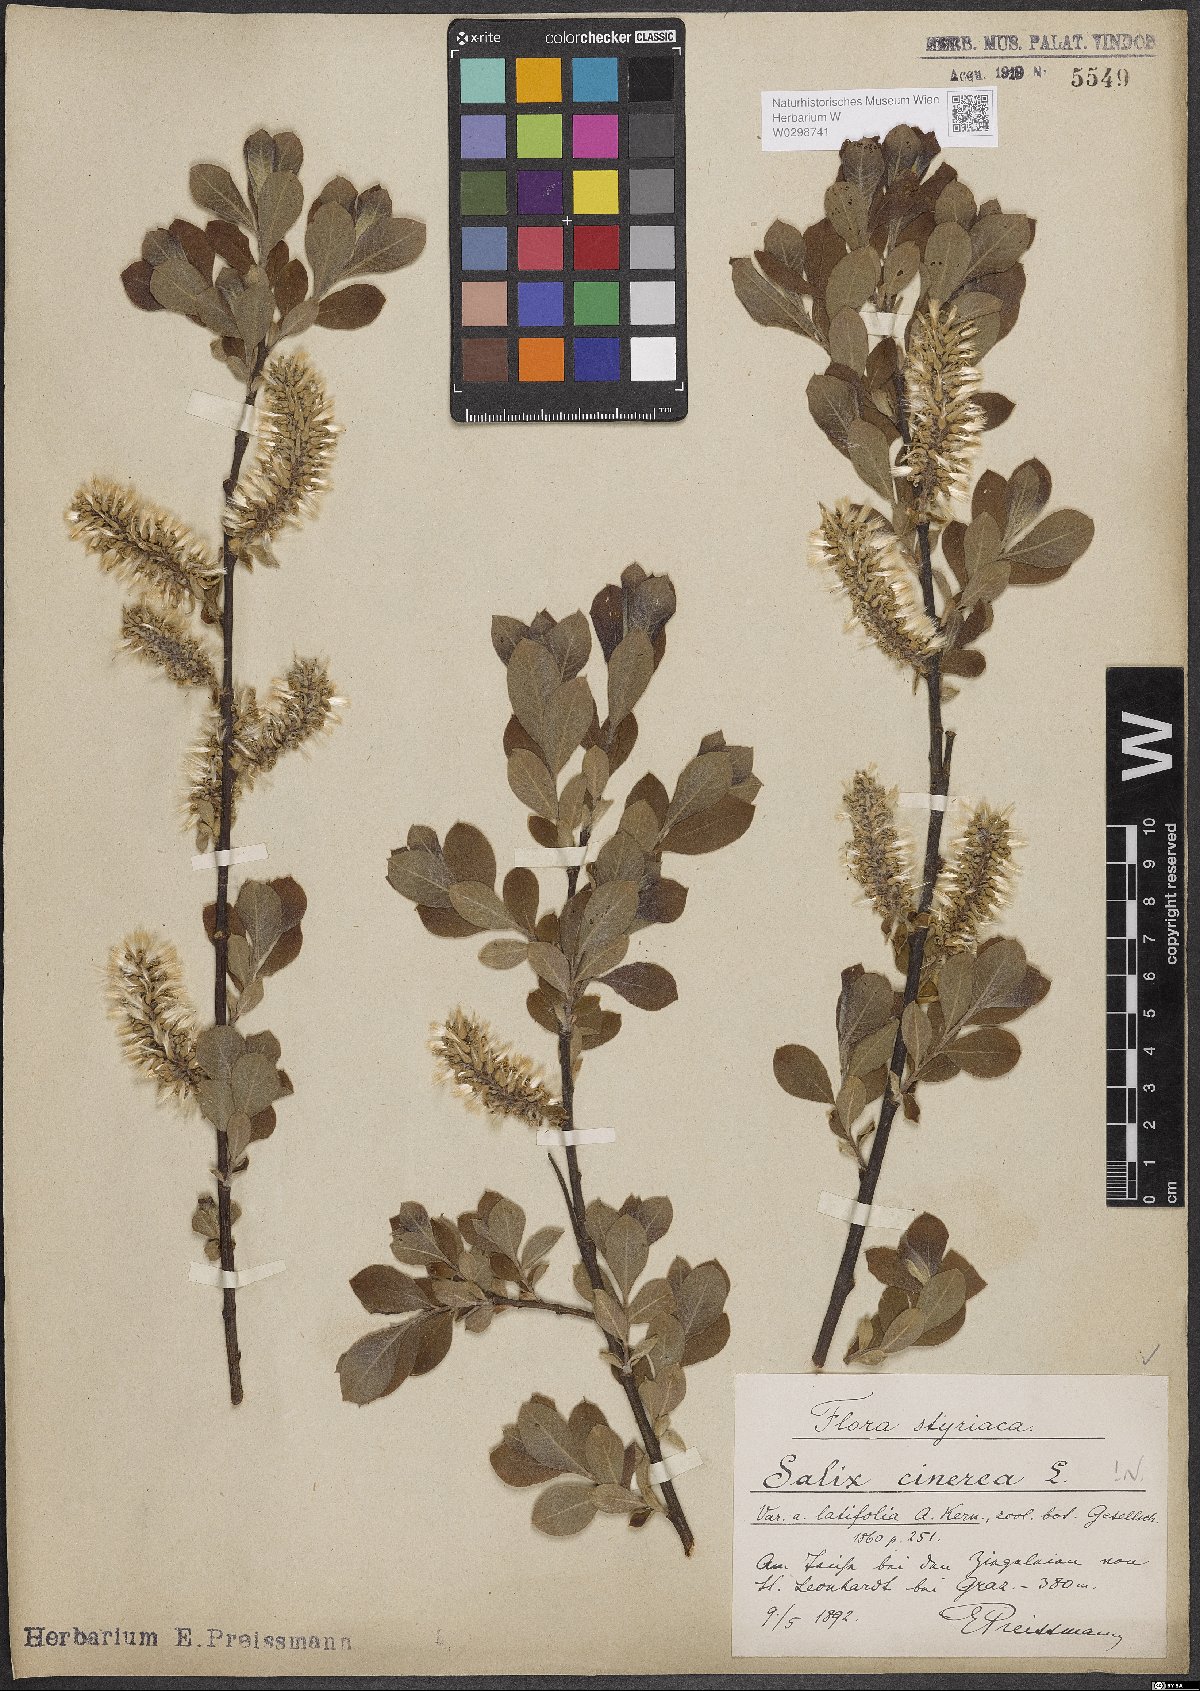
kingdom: Plantae
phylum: Tracheophyta
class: Magnoliopsida
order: Malpighiales
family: Salicaceae
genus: Salix
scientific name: Salix cinerea
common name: Common sallow
